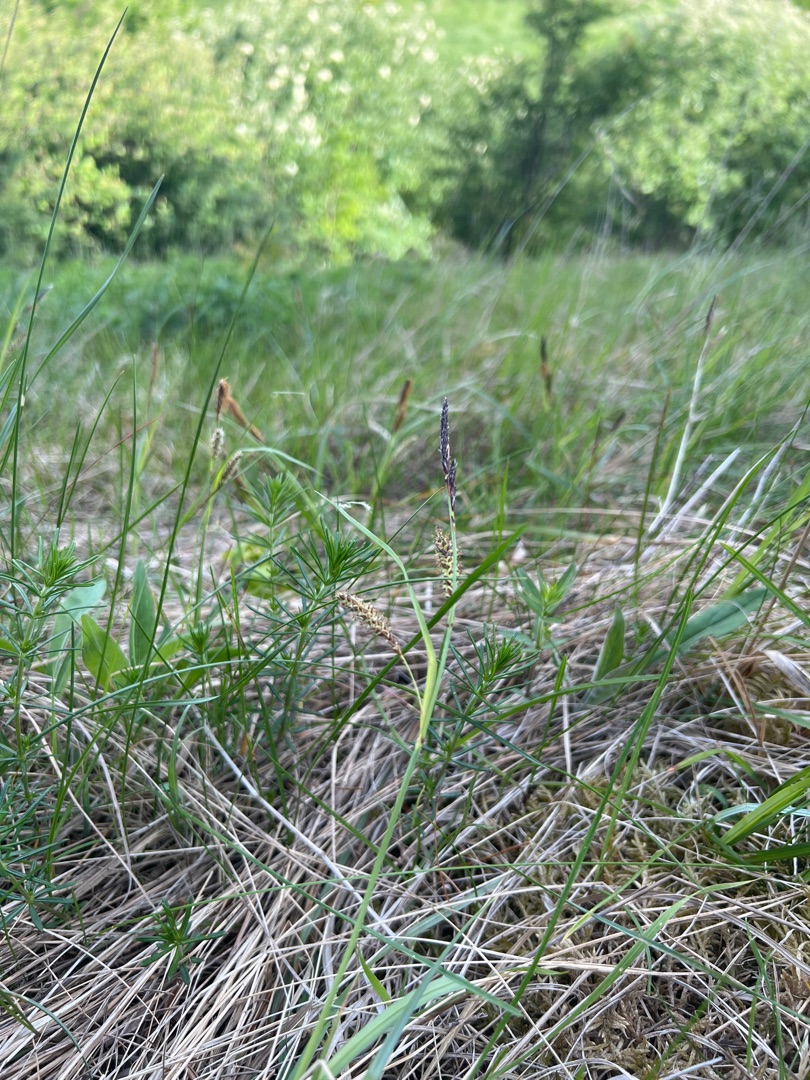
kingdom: Plantae
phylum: Tracheophyta
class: Liliopsida
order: Poales
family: Cyperaceae
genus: Carex
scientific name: Carex flacca
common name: Blågrøn star
